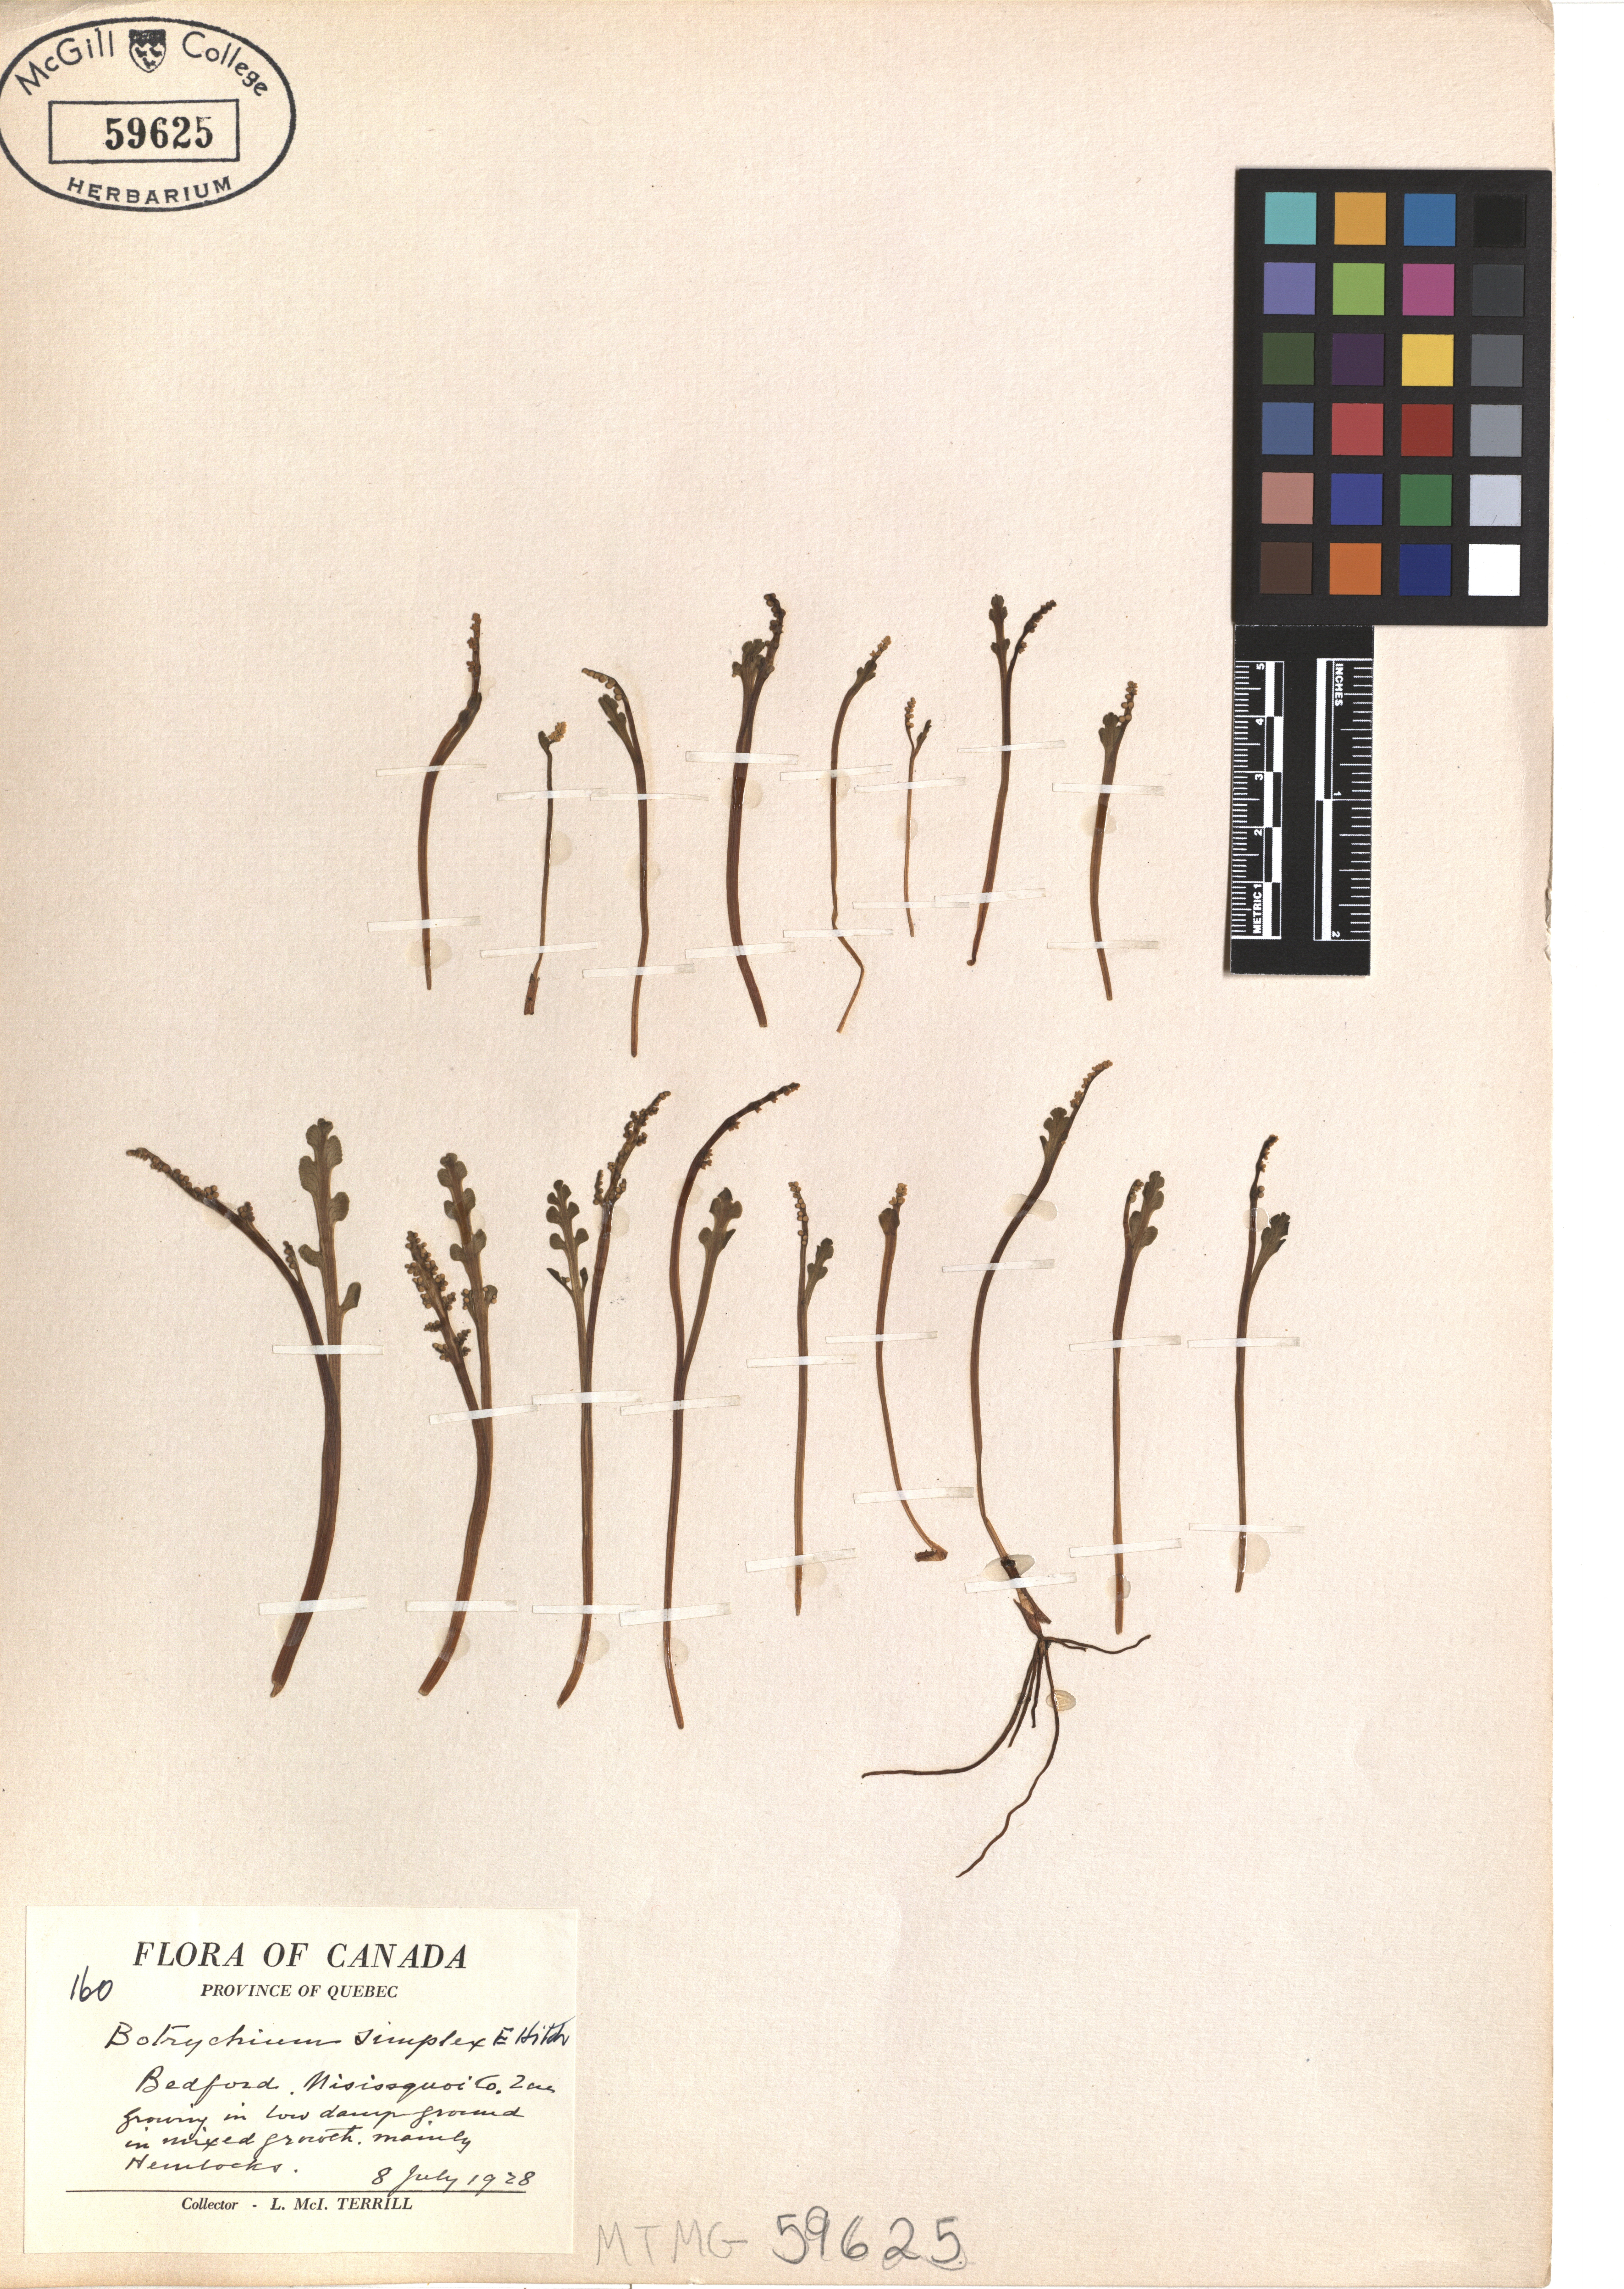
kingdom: Plantae
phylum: Tracheophyta
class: Polypodiopsida
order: Ophioglossales
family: Ophioglossaceae
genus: Botrychium
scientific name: Botrychium simplex
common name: Least moonwort
